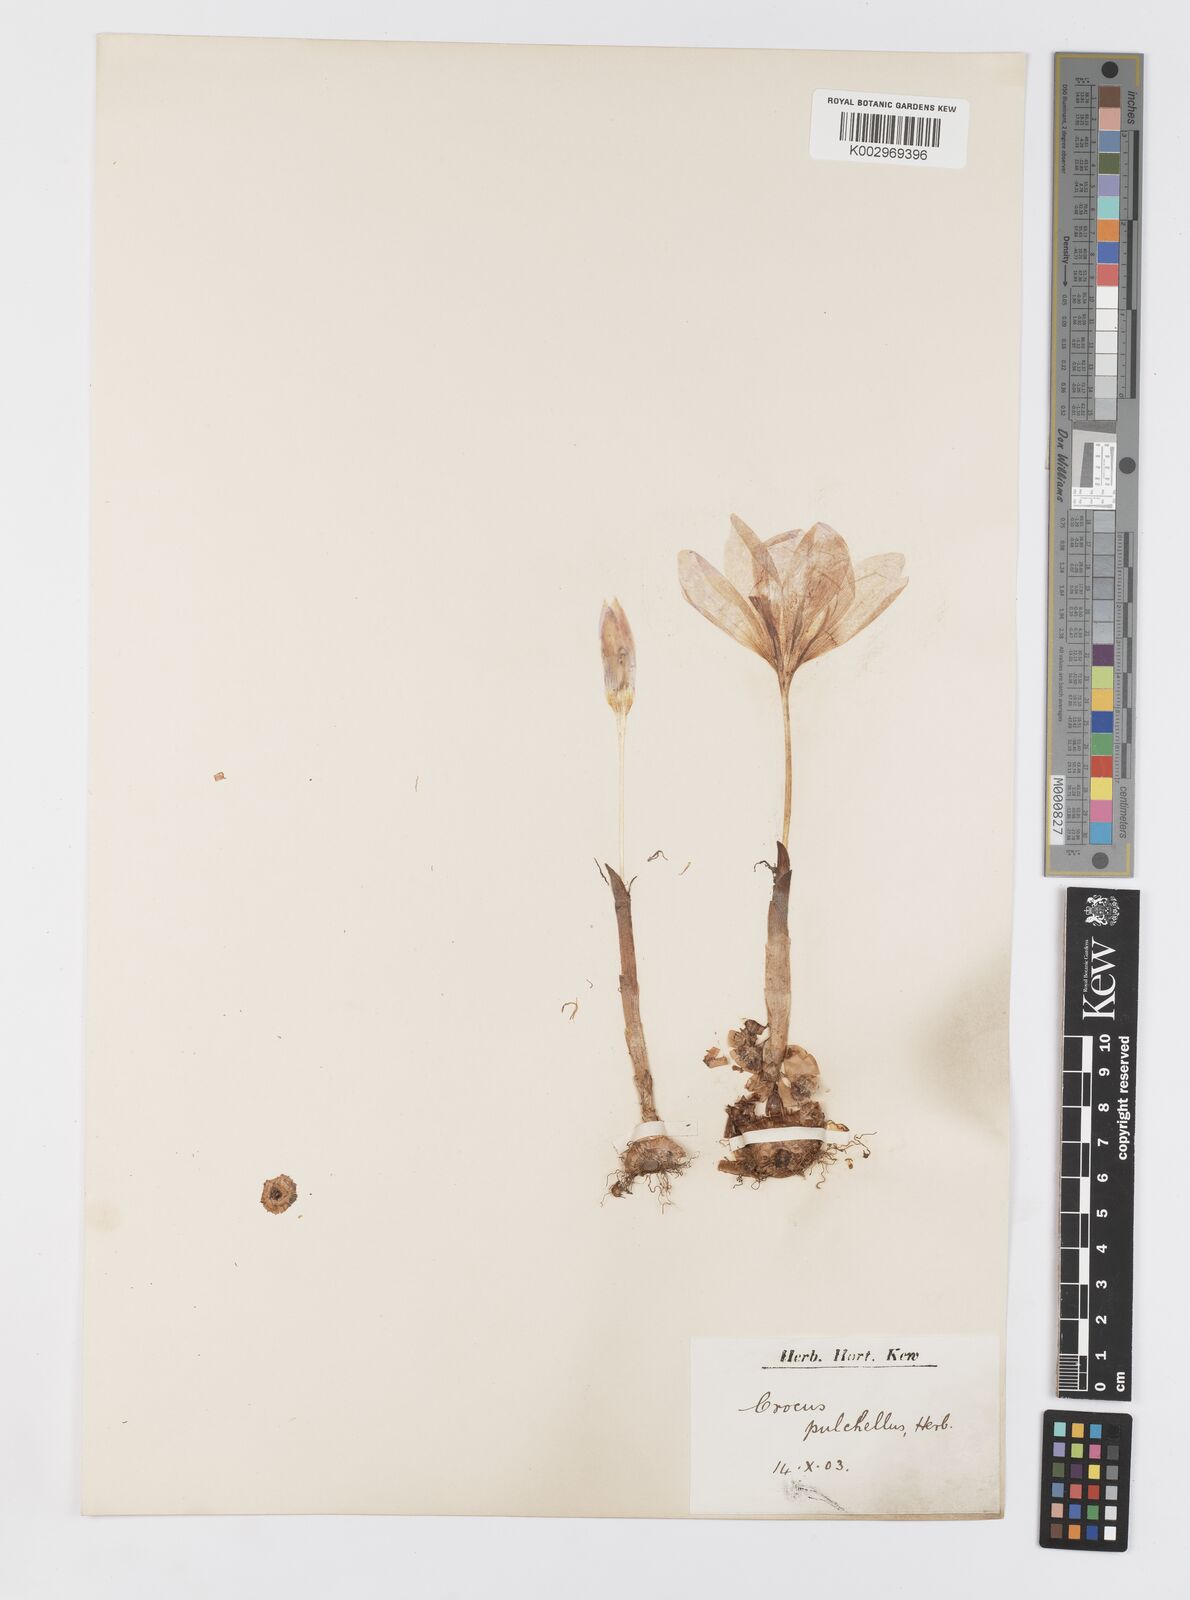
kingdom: Plantae
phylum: Tracheophyta
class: Liliopsida
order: Asparagales
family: Iridaceae
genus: Crocus
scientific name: Crocus pulchellus
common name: Hairy crocus
